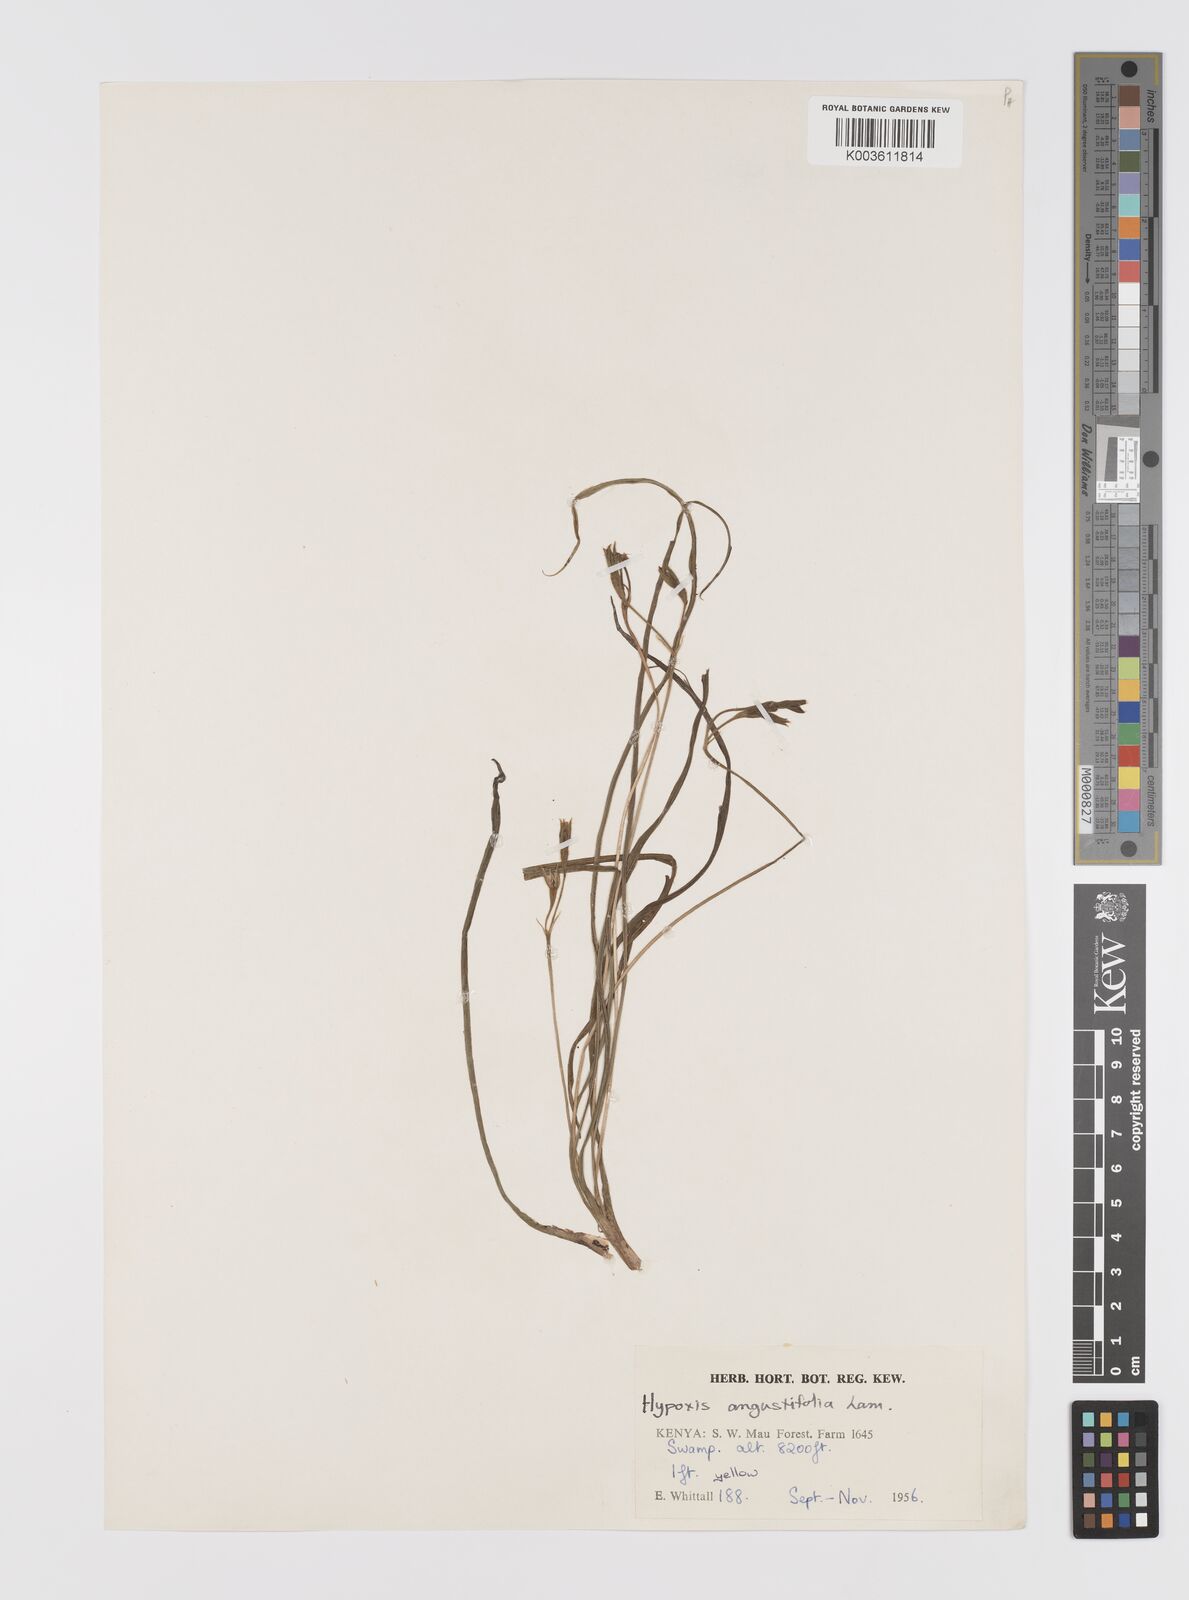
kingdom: Plantae
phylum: Tracheophyta
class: Liliopsida
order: Asparagales
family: Hypoxidaceae
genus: Hypoxis
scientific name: Hypoxis angustifolia
